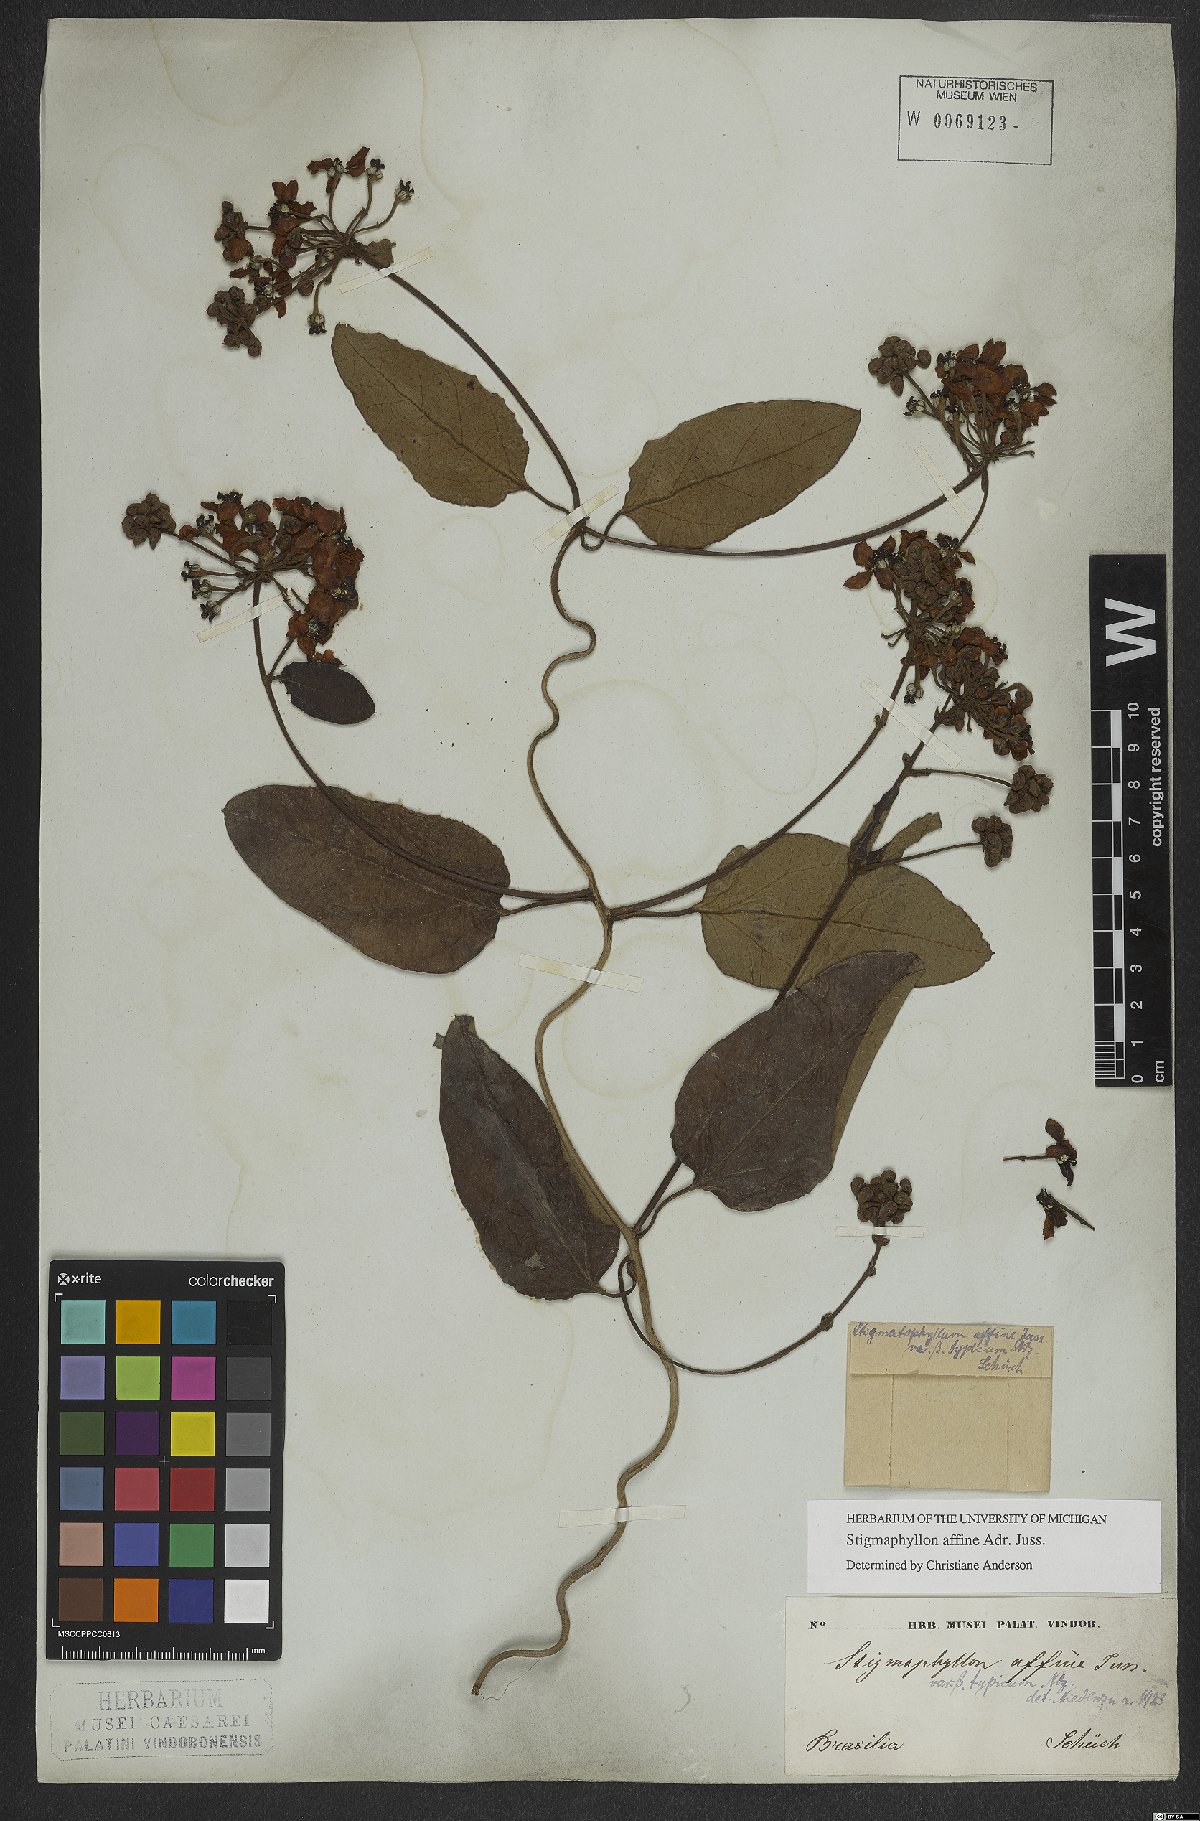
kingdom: Plantae
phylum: Tracheophyta
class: Magnoliopsida
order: Malpighiales
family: Malpighiaceae
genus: Stigmaphyllon
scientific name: Stigmaphyllon affine
